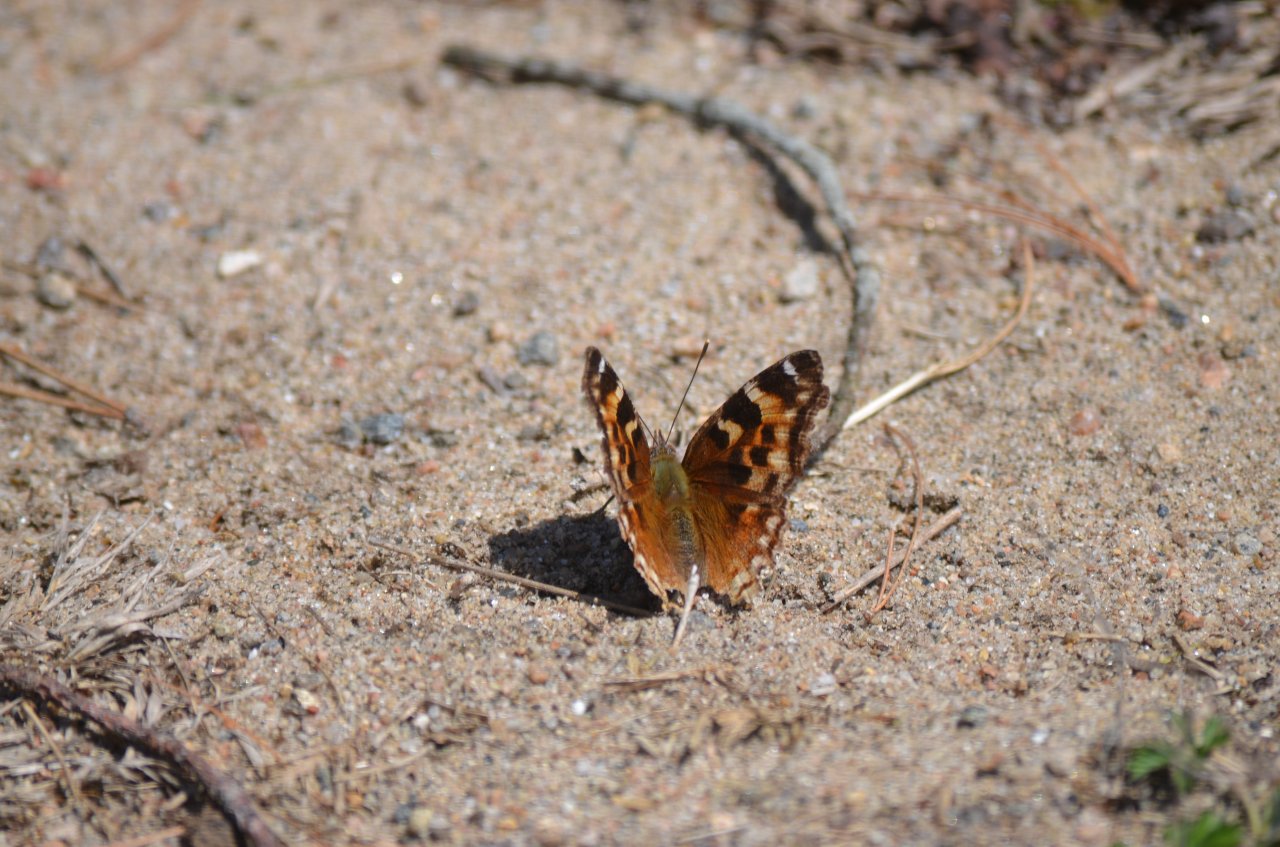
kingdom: Animalia
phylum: Arthropoda
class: Insecta
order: Lepidoptera
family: Nymphalidae
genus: Polygonia
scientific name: Polygonia vaualbum
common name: Compton Tortoiseshell
